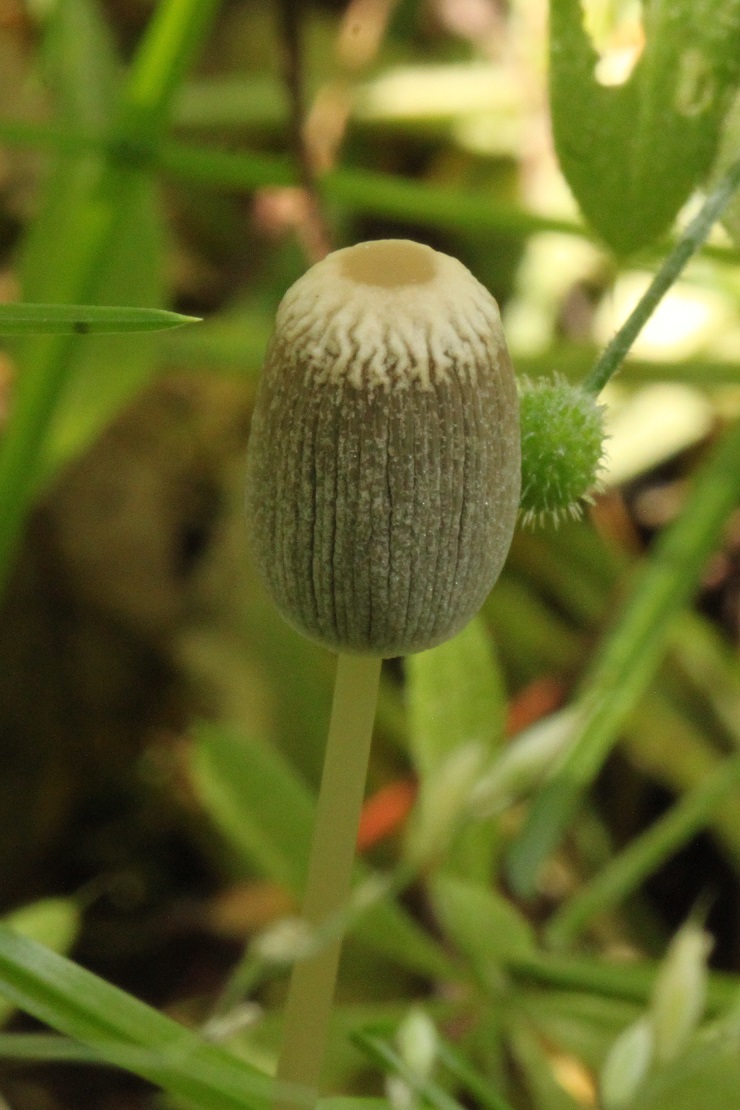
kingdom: Fungi
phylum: Basidiomycota
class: Agaricomycetes
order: Agaricales
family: Psathyrellaceae
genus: Parasola
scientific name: Parasola lactea
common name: glat hjulhat
